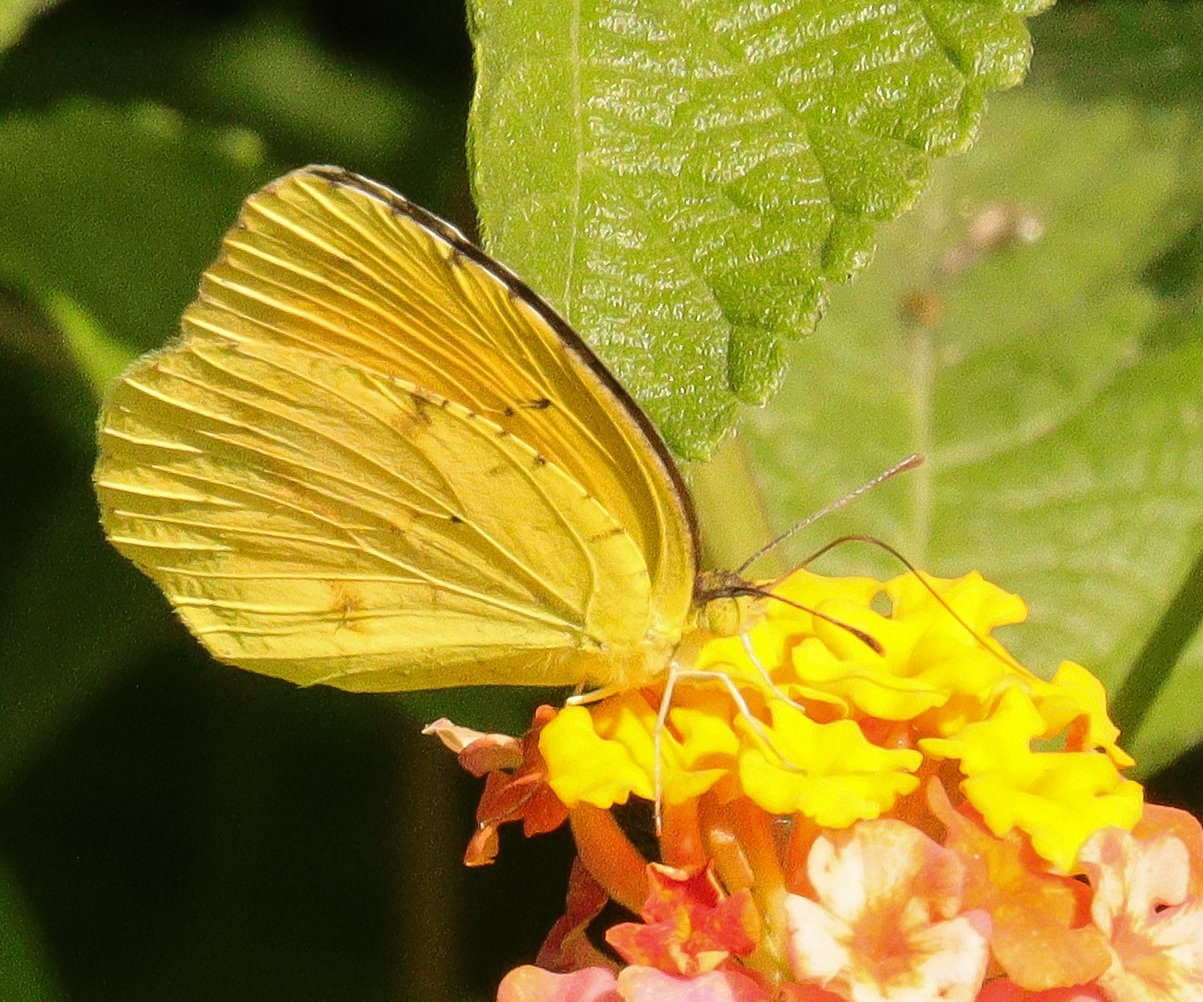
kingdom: Animalia
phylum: Arthropoda
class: Insecta
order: Lepidoptera
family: Pieridae
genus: Abaeis
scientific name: Abaeis nicippe
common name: Sleepy Orange
